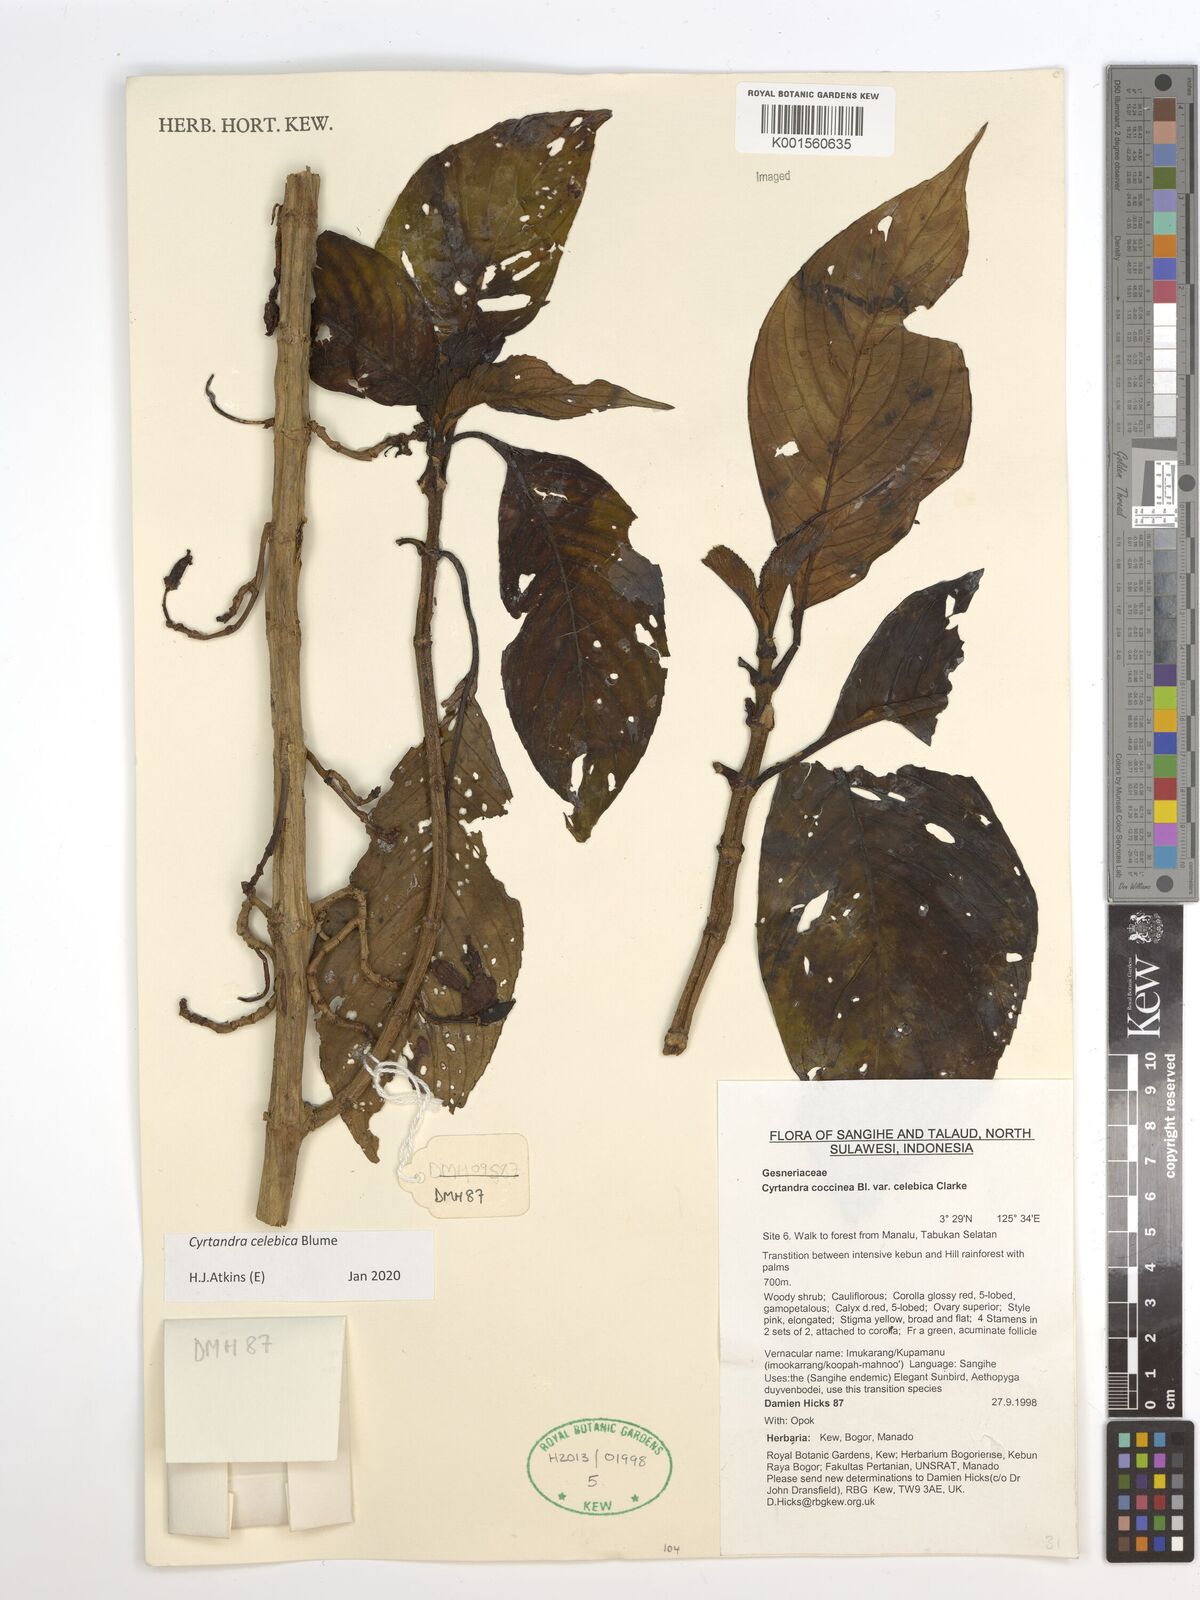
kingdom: Plantae
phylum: Tracheophyta
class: Magnoliopsida
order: Lamiales
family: Gesneriaceae
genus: Cyrtandra
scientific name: Cyrtandra coccinea
